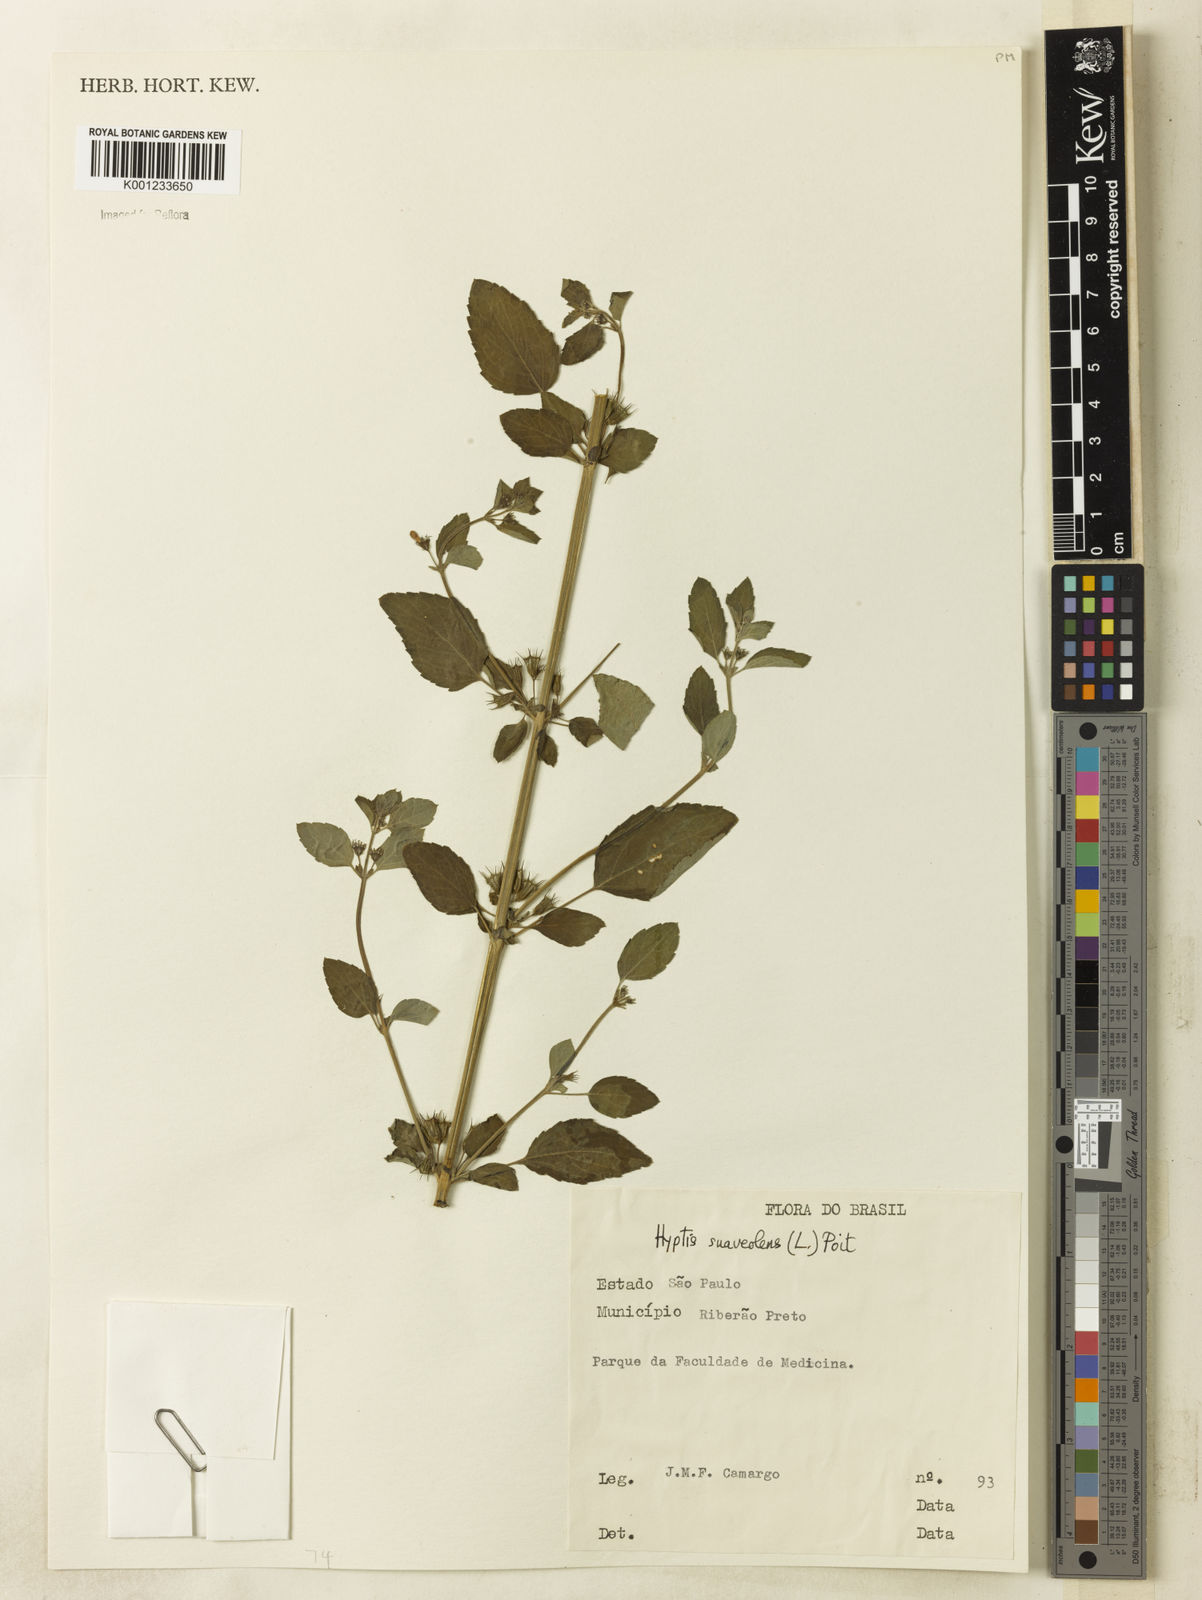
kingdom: Plantae
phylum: Tracheophyta
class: Magnoliopsida
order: Lamiales
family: Lamiaceae
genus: Mesosphaerum
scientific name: Mesosphaerum suaveolens
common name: Pignut
